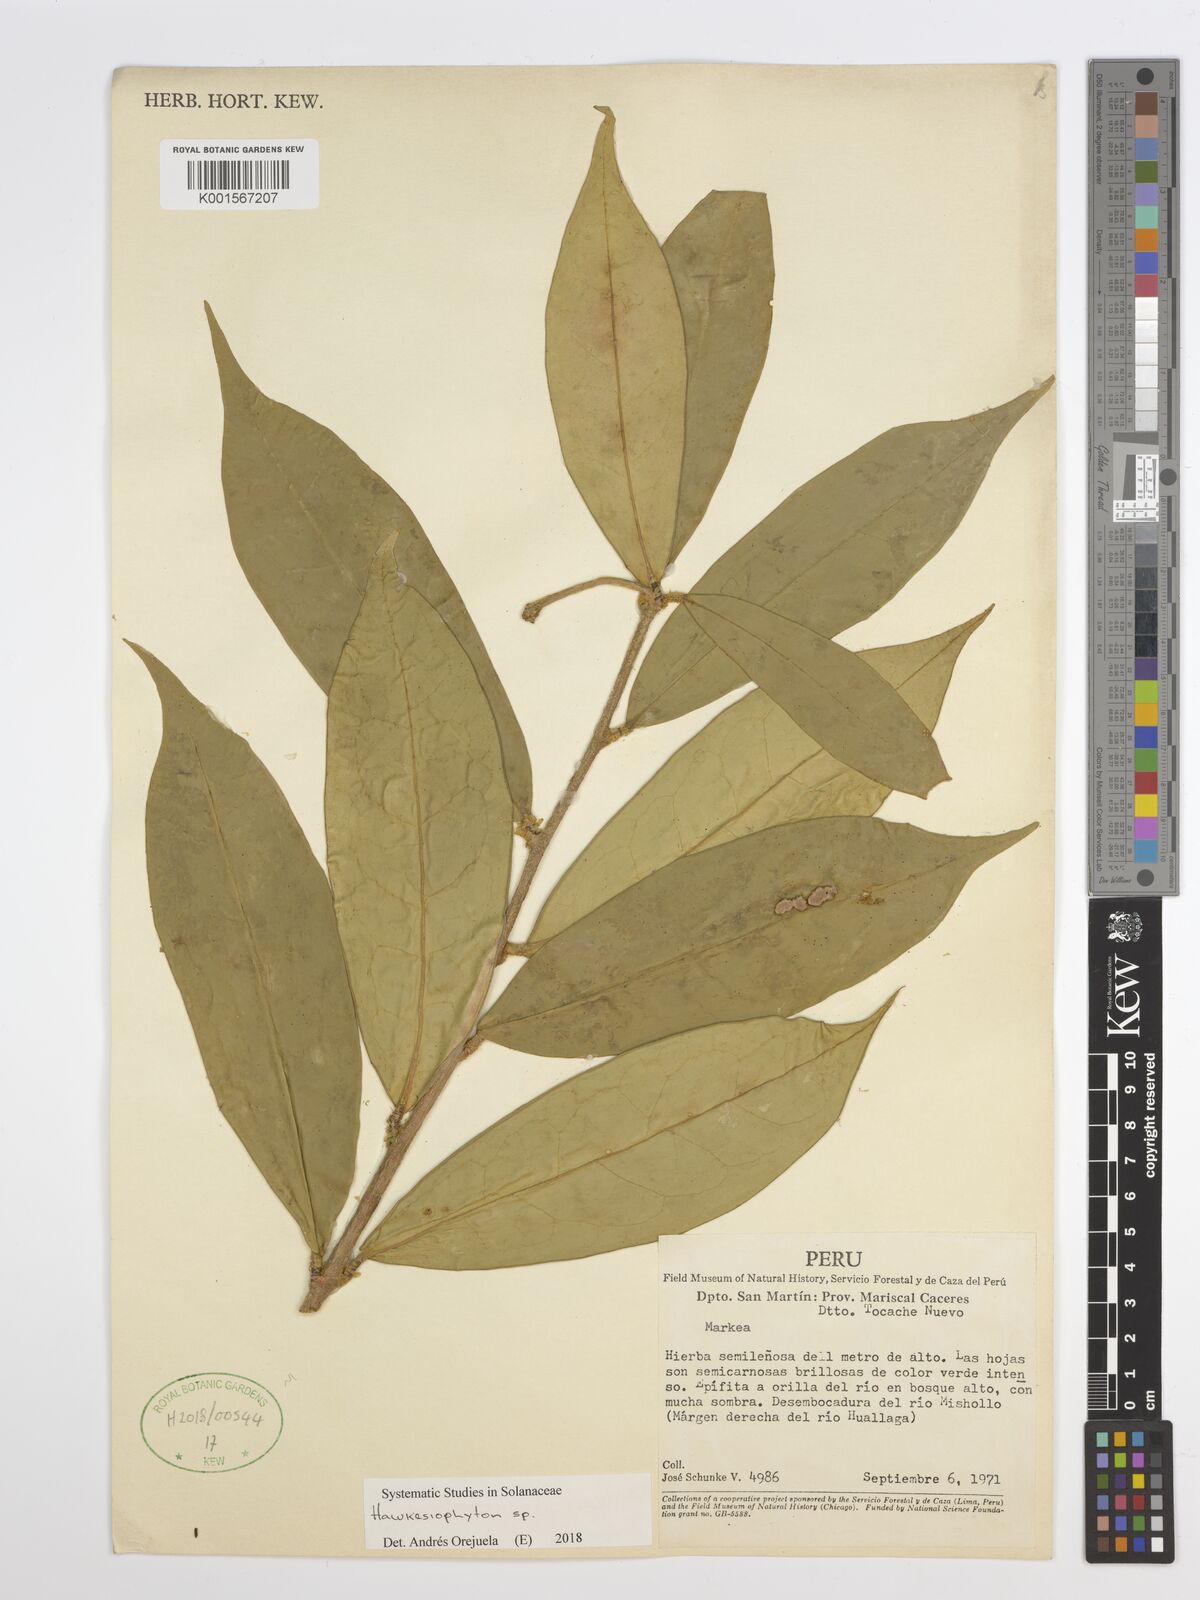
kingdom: Plantae
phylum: Tracheophyta
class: Magnoliopsida
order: Solanales
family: Solanaceae
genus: Hawkesiophyton
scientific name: Hawkesiophyton
